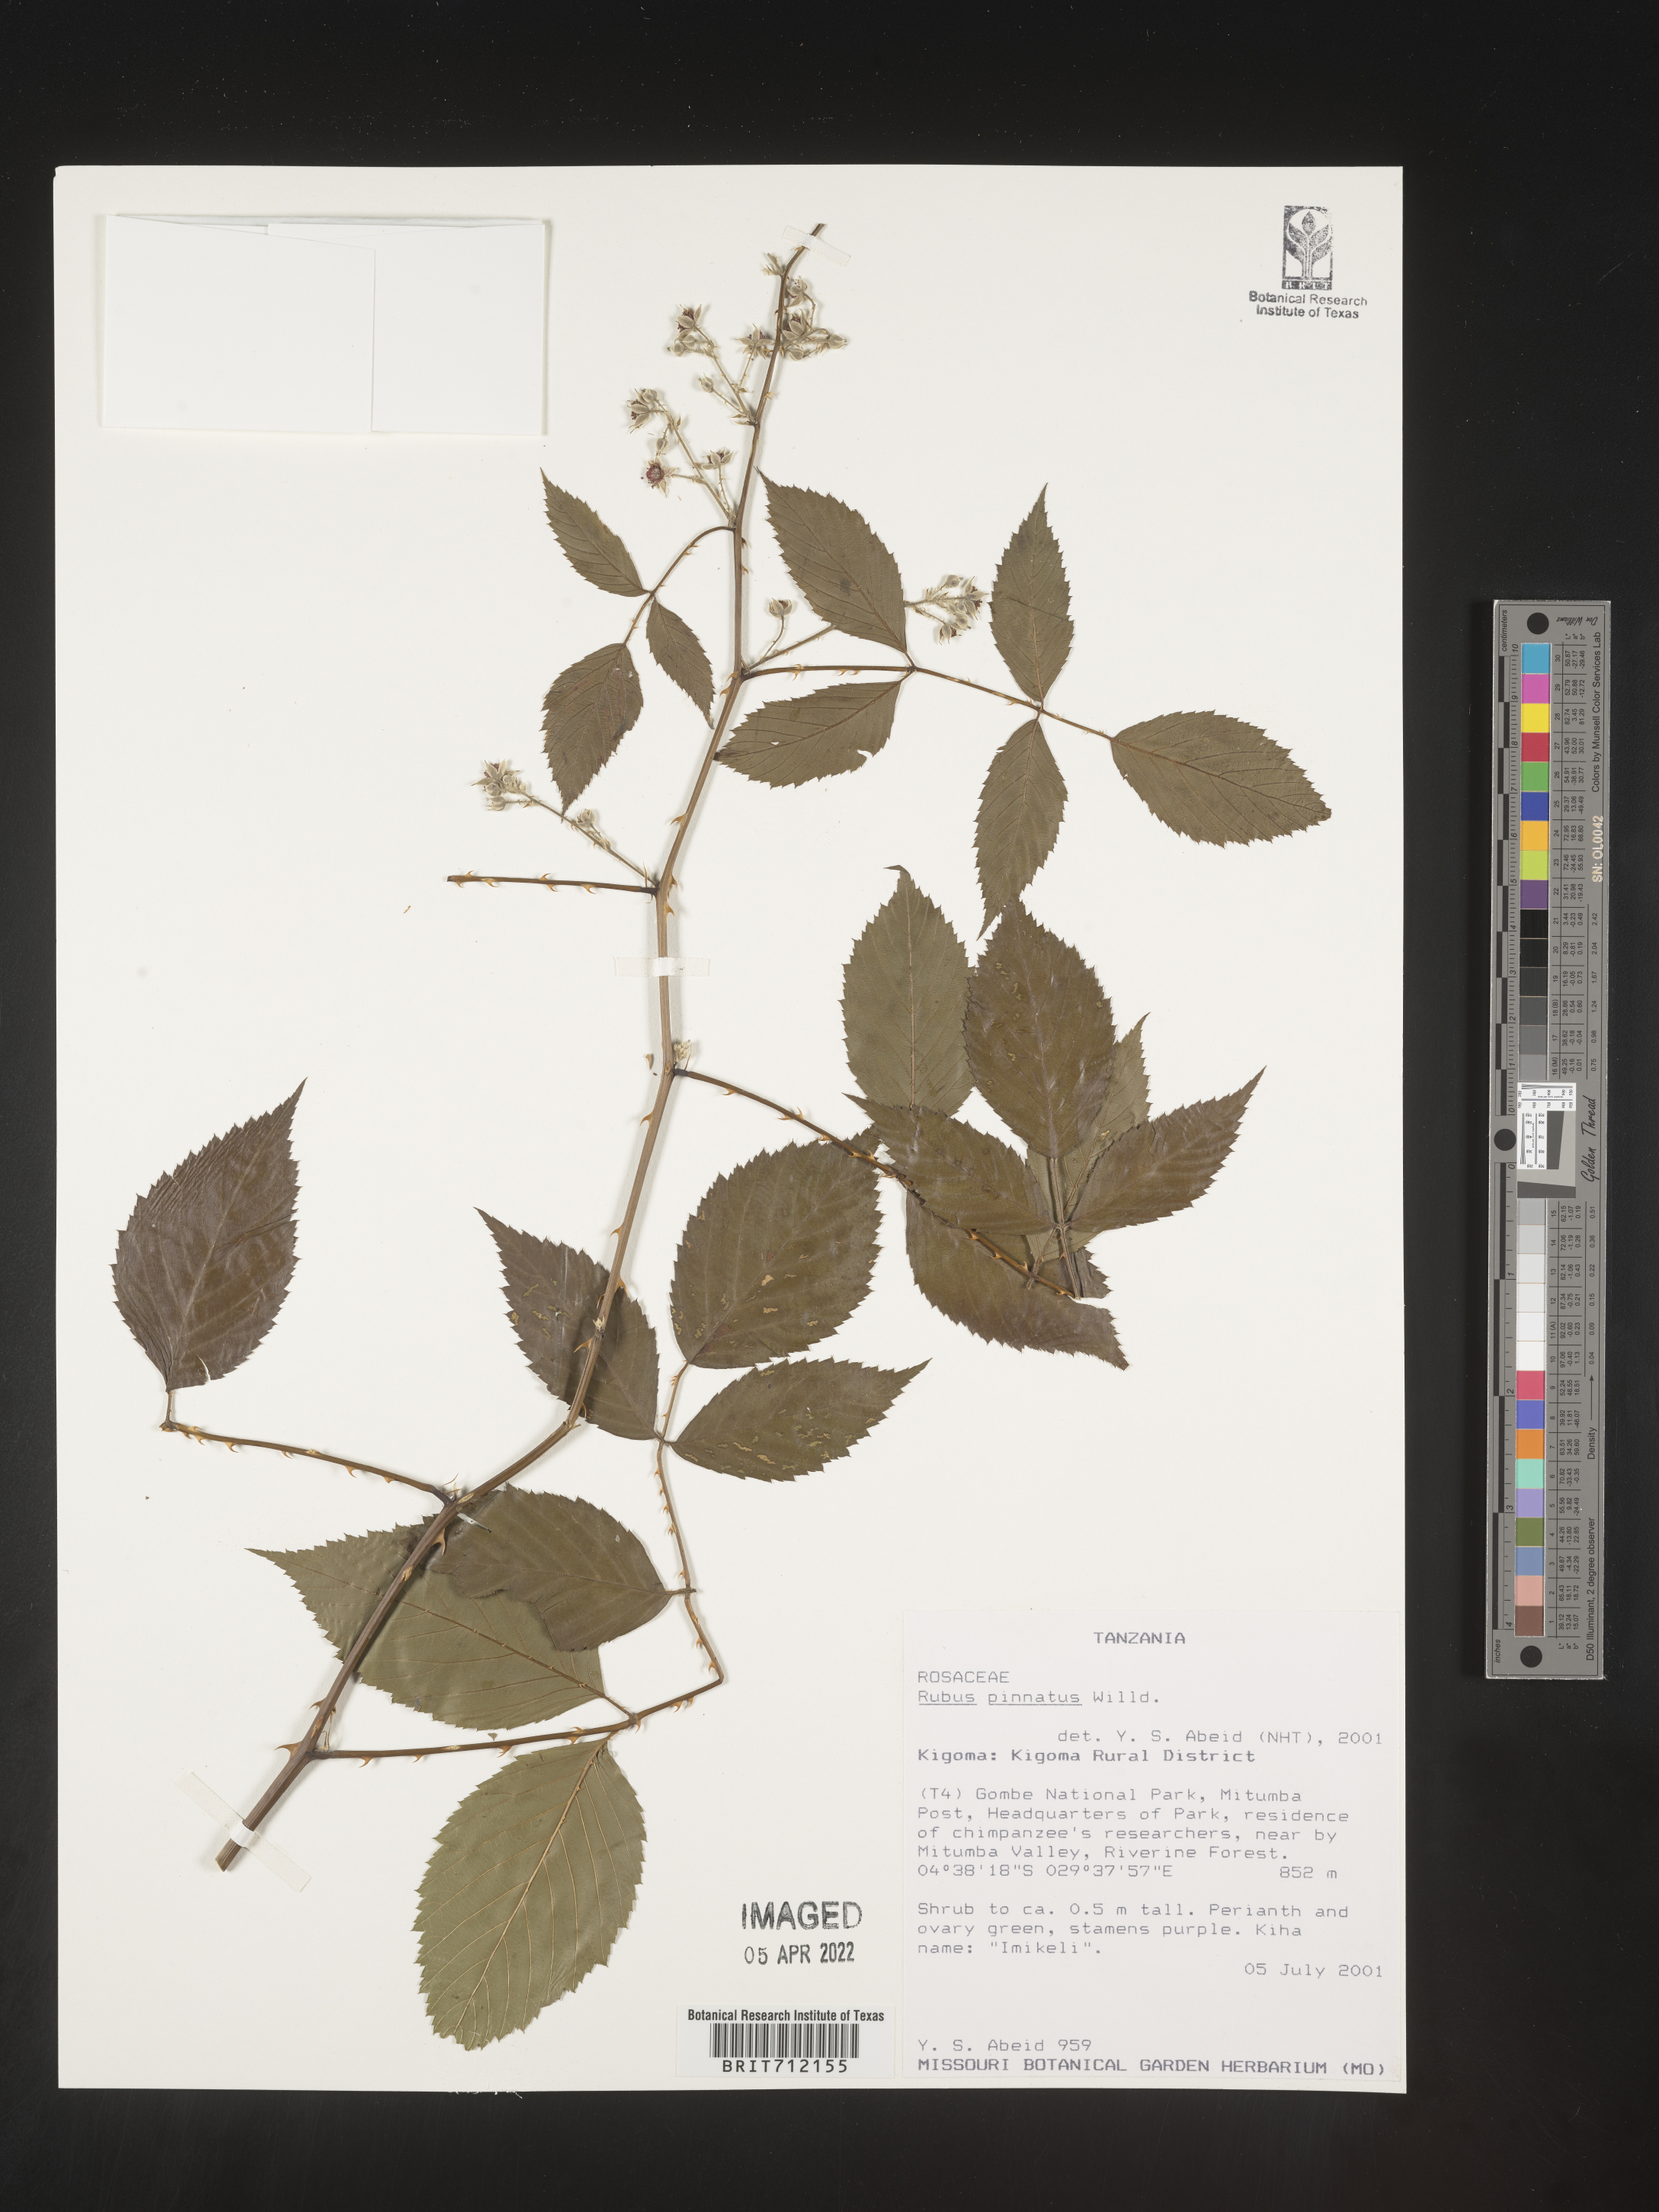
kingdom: Plantae
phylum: Tracheophyta
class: Magnoliopsida
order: Rosales
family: Rosaceae
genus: Rubus
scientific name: Rubus
